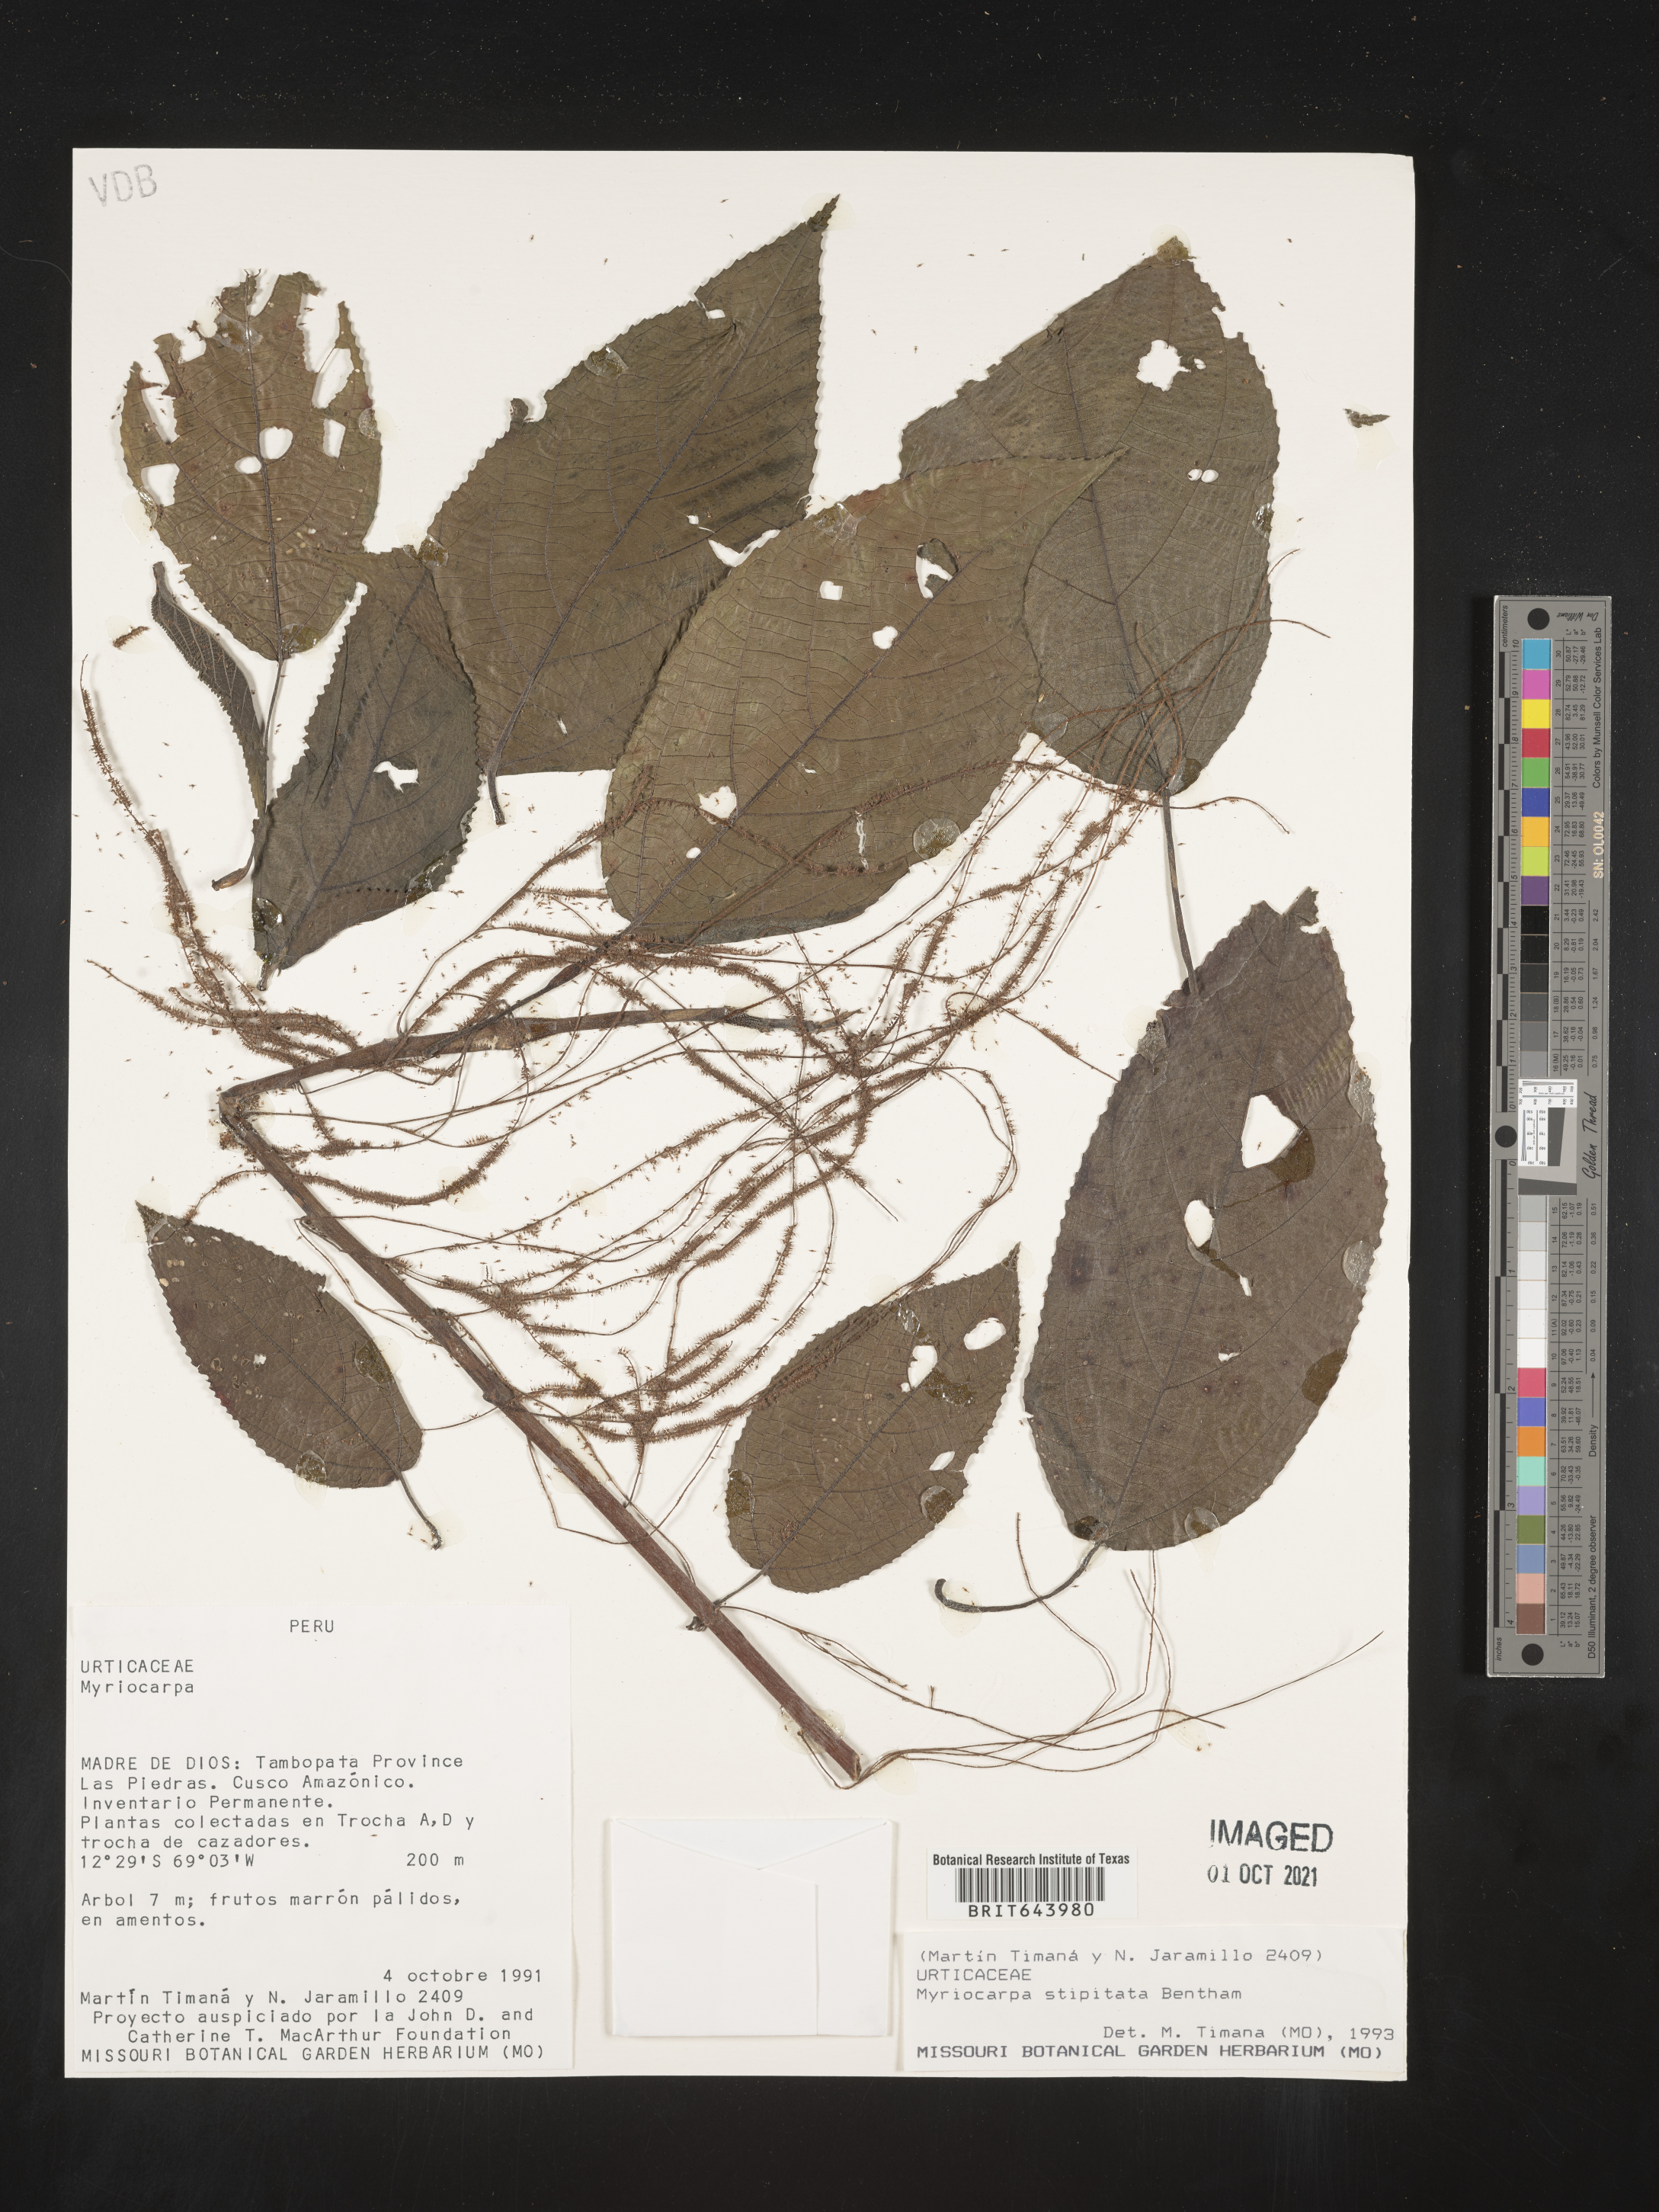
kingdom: Plantae
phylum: Tracheophyta
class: Magnoliopsida
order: Rosales
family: Urticaceae
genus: Myriocarpa
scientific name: Myriocarpa
